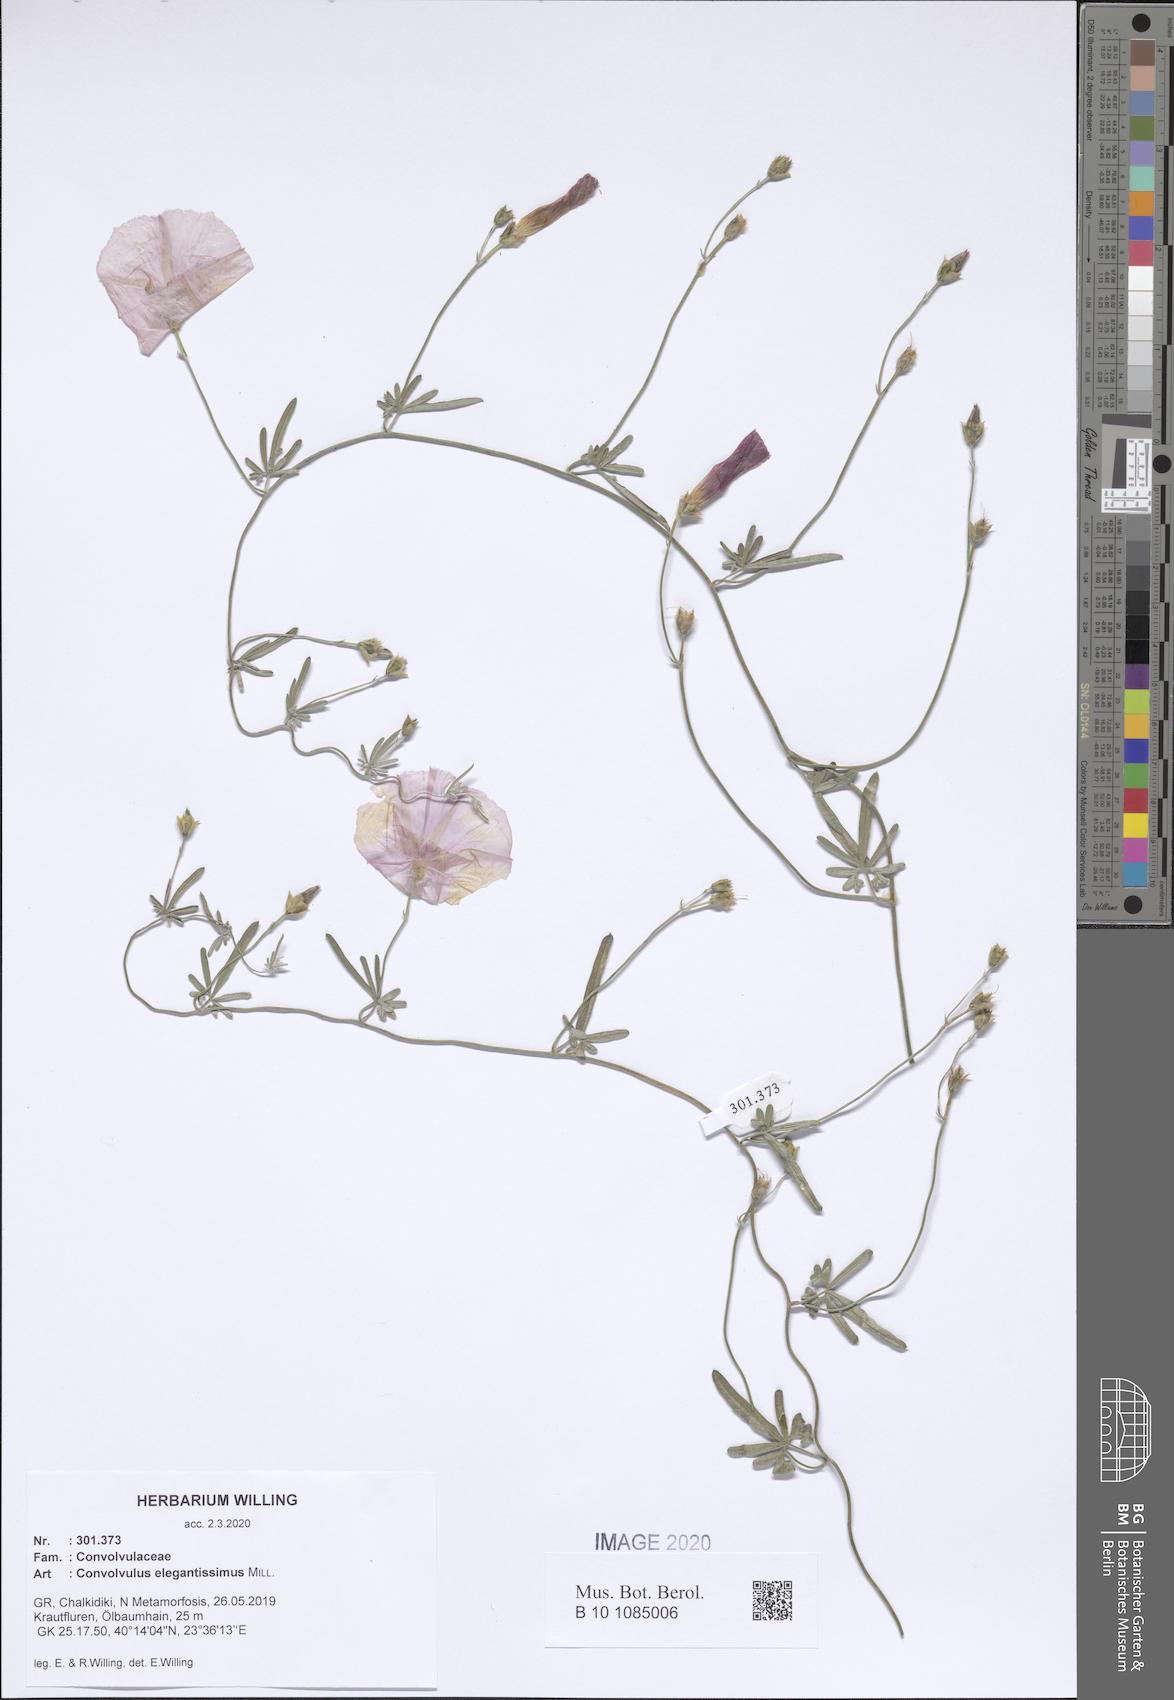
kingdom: Plantae
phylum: Tracheophyta
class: Magnoliopsida
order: Solanales
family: Convolvulaceae
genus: Convolvulus
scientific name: Convolvulus elegantissimus
